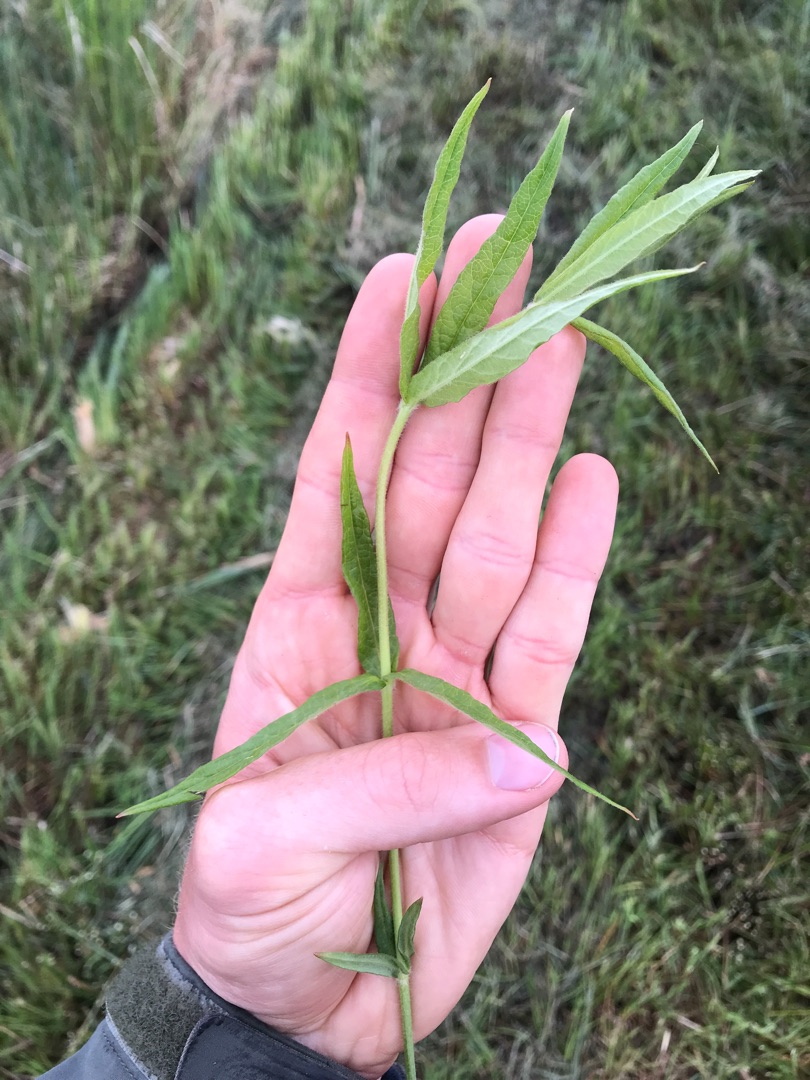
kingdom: Plantae
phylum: Tracheophyta
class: Magnoliopsida
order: Ericales
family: Primulaceae
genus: Lysimachia
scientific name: Lysimachia thyrsiflora
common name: Dusk-fredløs
